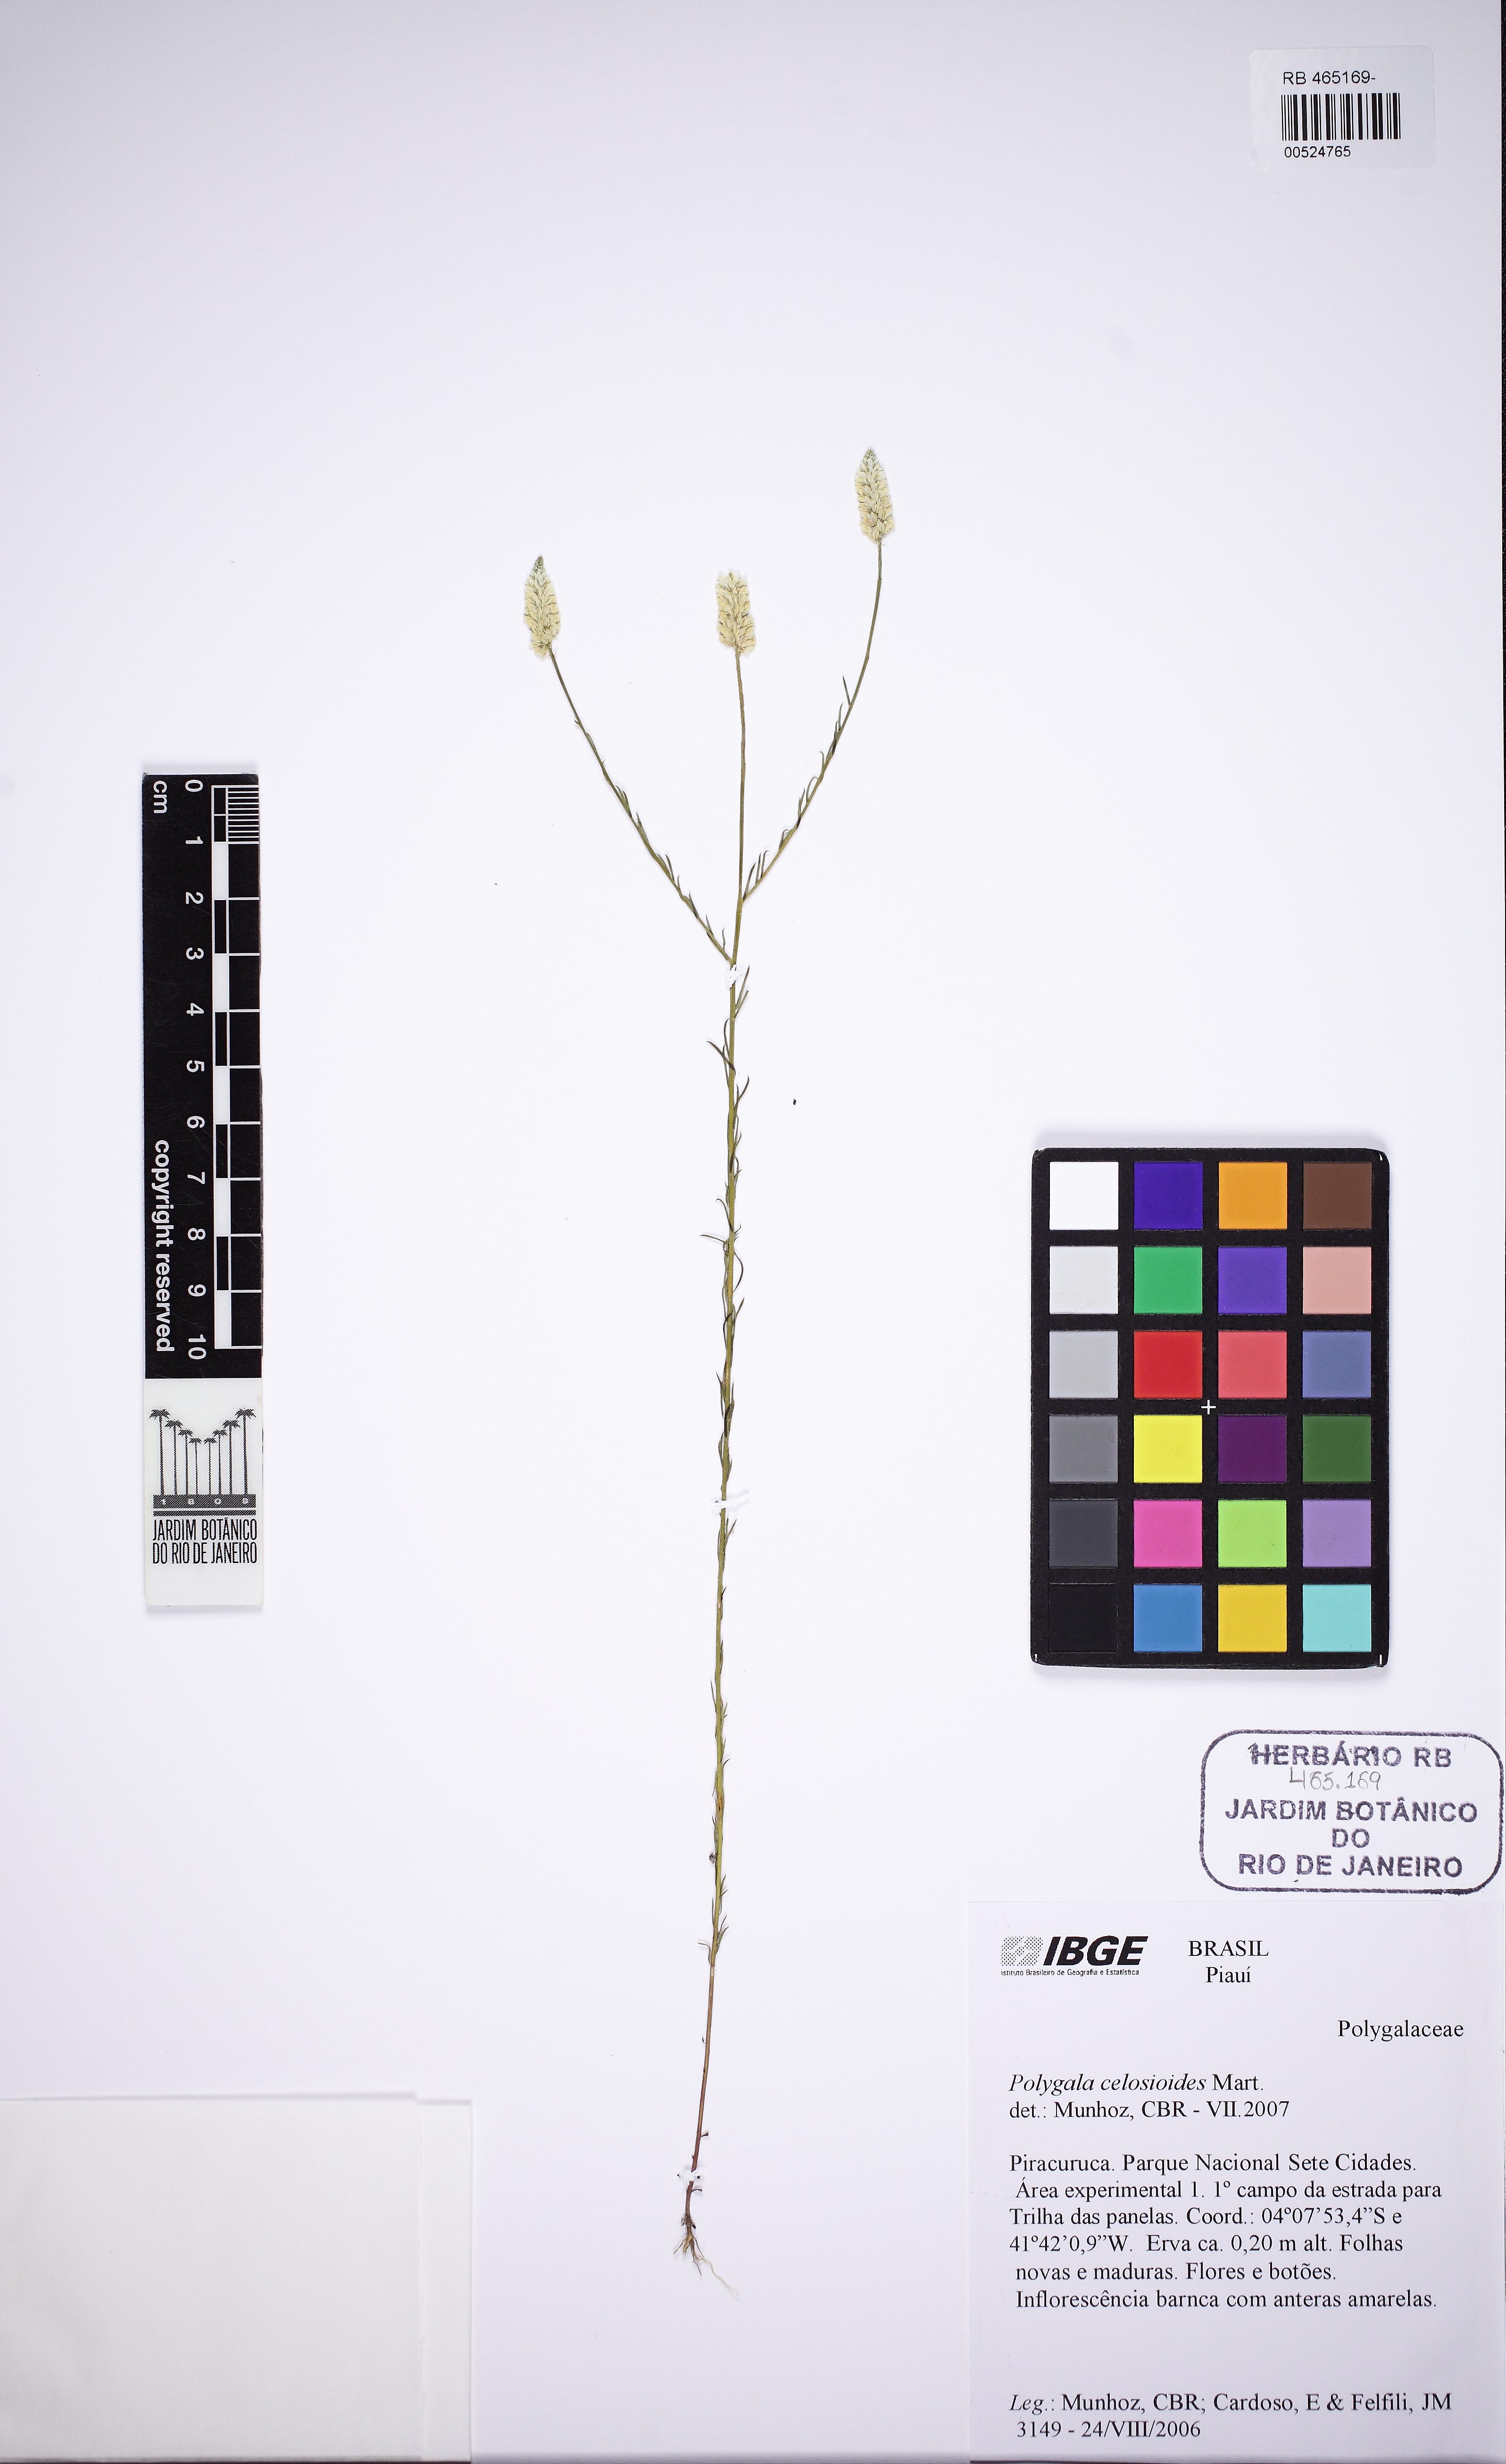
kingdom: Plantae
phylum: Tracheophyta
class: Magnoliopsida
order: Fabales
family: Polygalaceae
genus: Polygala
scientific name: Polygala celosioides
